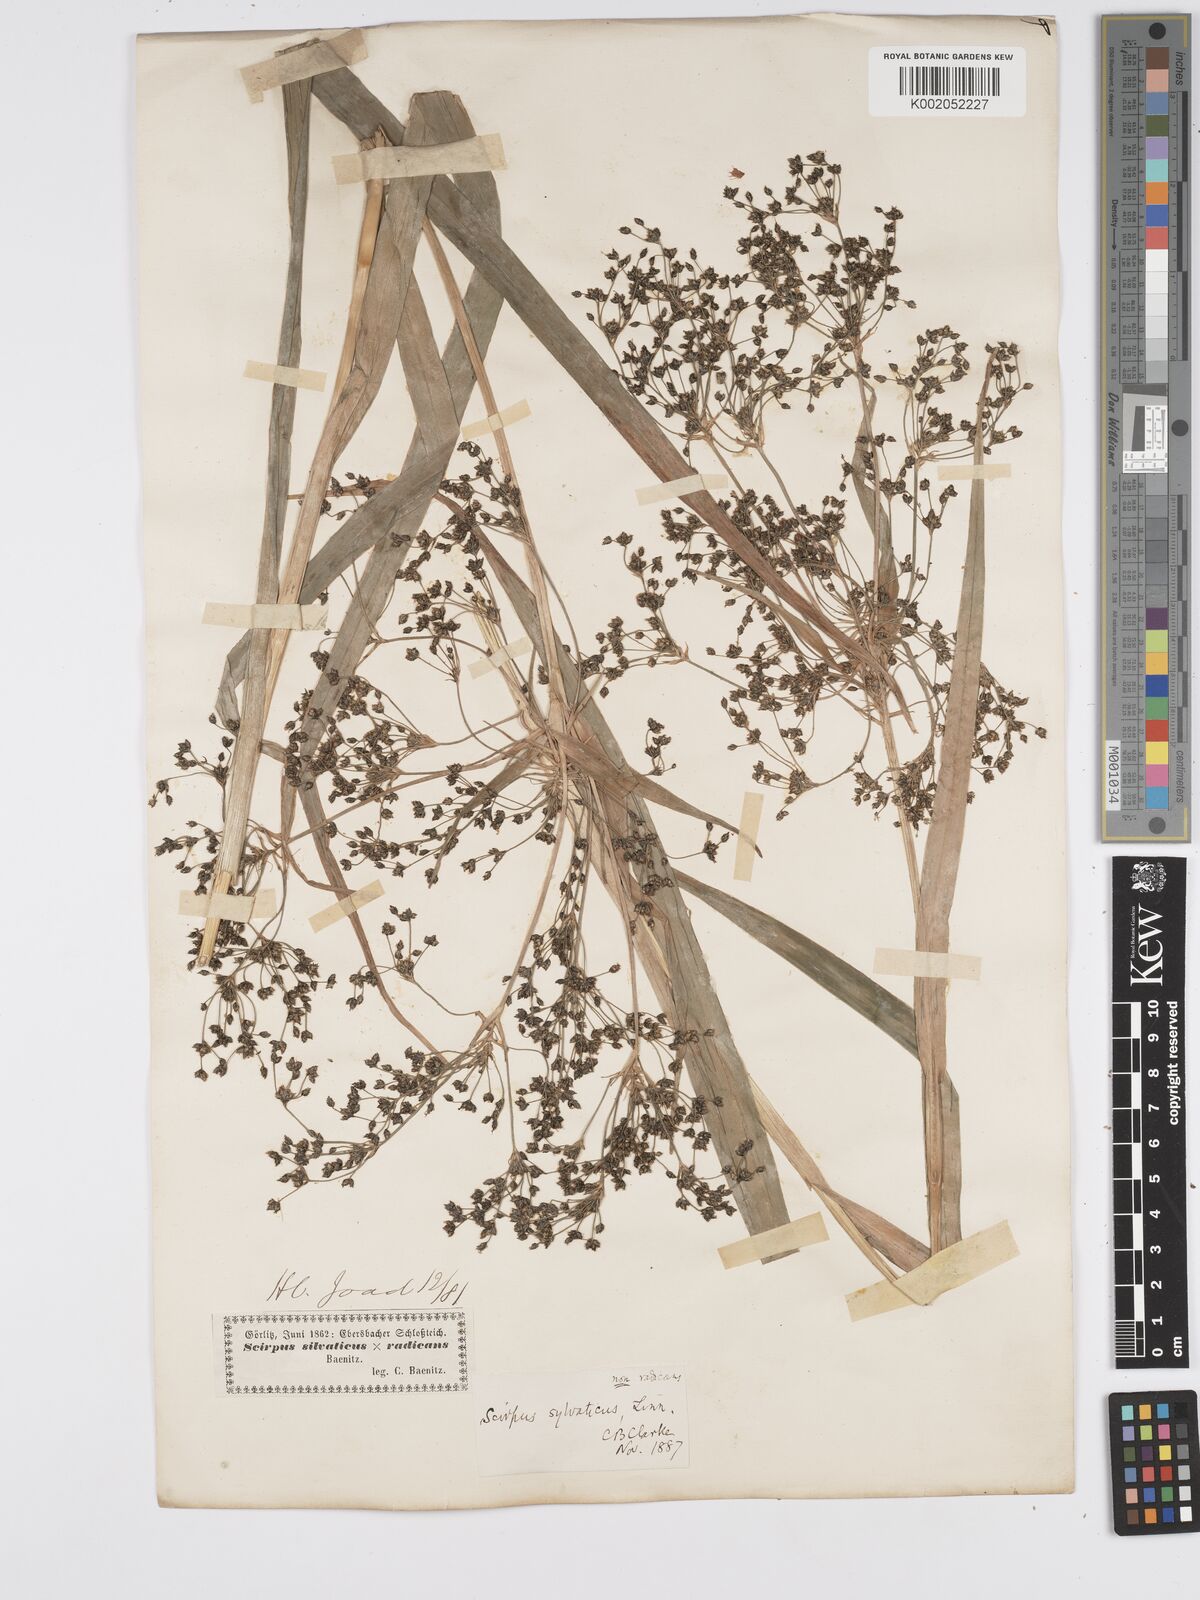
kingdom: Plantae
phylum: Tracheophyta
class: Liliopsida
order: Poales
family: Cyperaceae
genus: Scirpus
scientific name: Scirpus sylvaticus
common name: Wood club-rush
